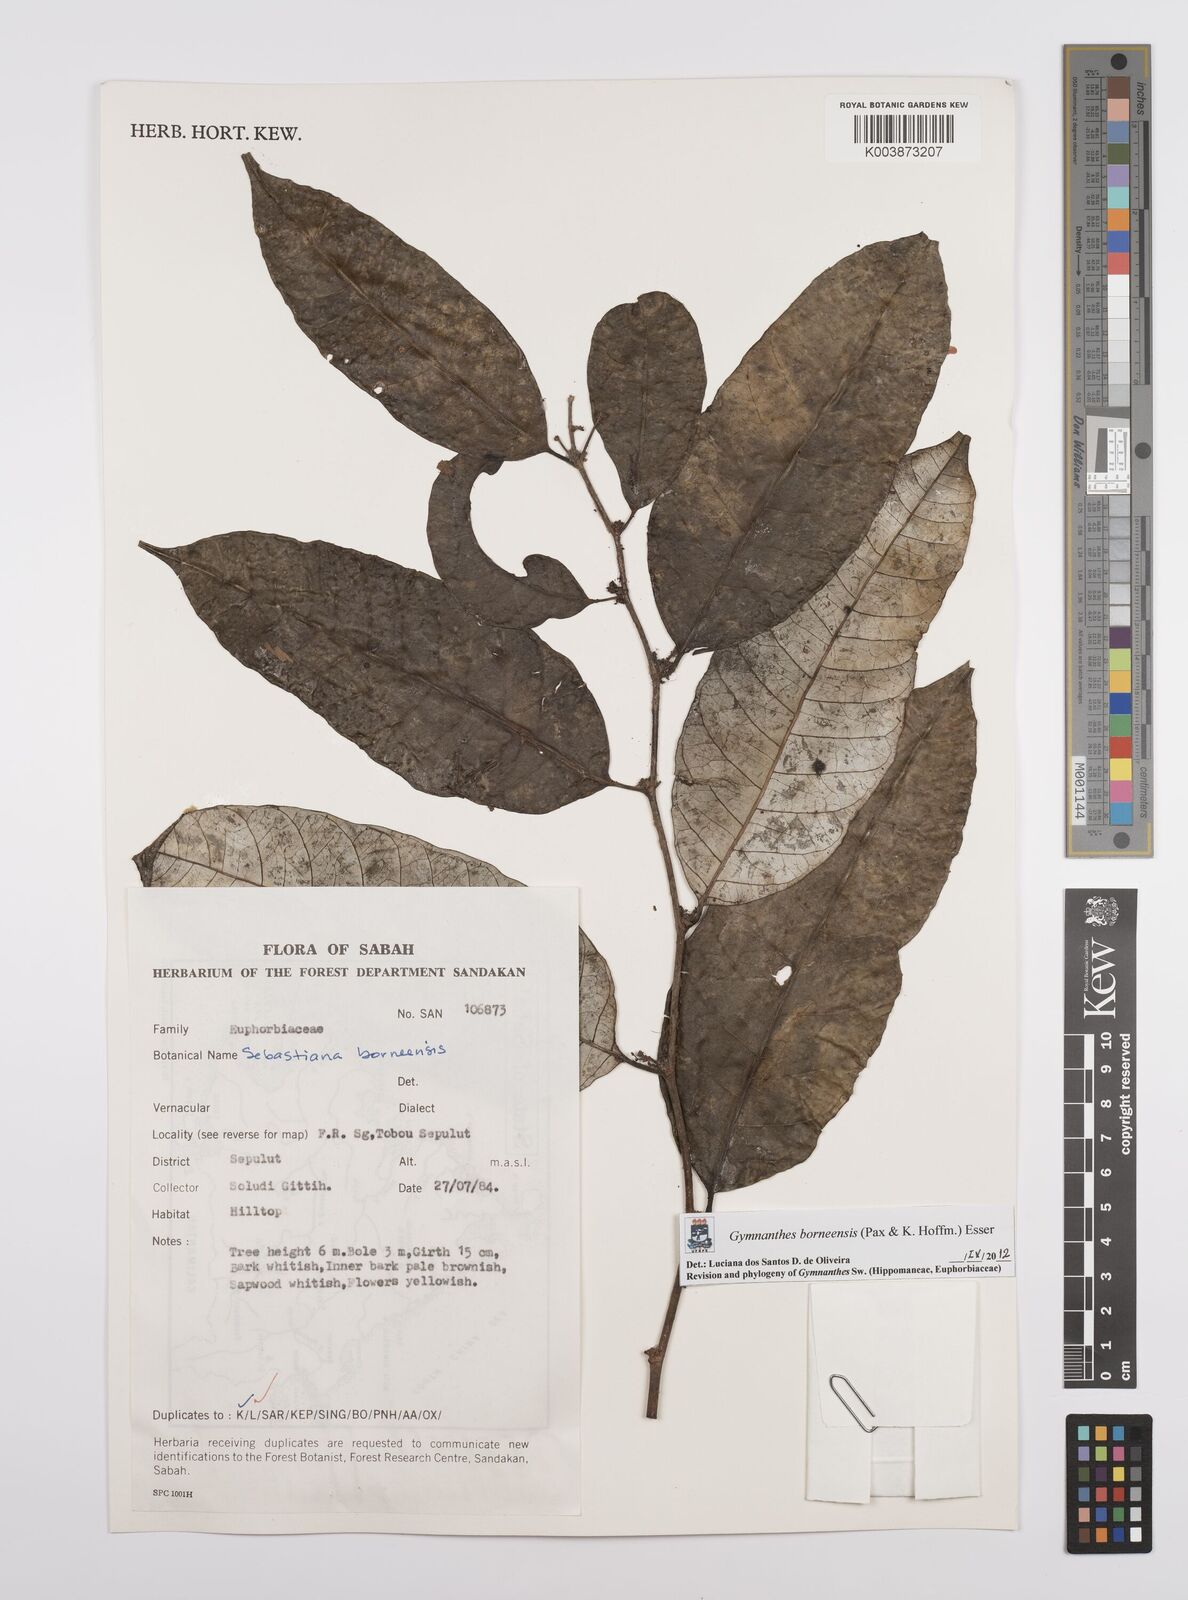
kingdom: Plantae
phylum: Tracheophyta
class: Magnoliopsida
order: Malpighiales
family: Euphorbiaceae
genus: Gymnanthes
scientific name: Gymnanthes borneensis
